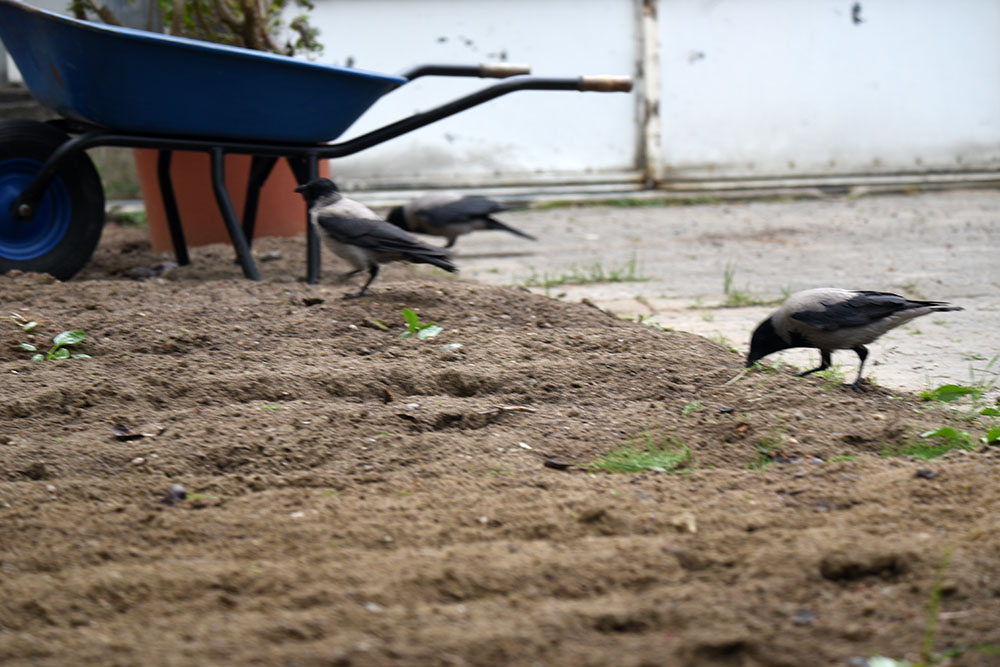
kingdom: Animalia
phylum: Chordata
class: Aves
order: Passeriformes
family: Corvidae
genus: Corvus
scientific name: Corvus cornix
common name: Hooded crow
